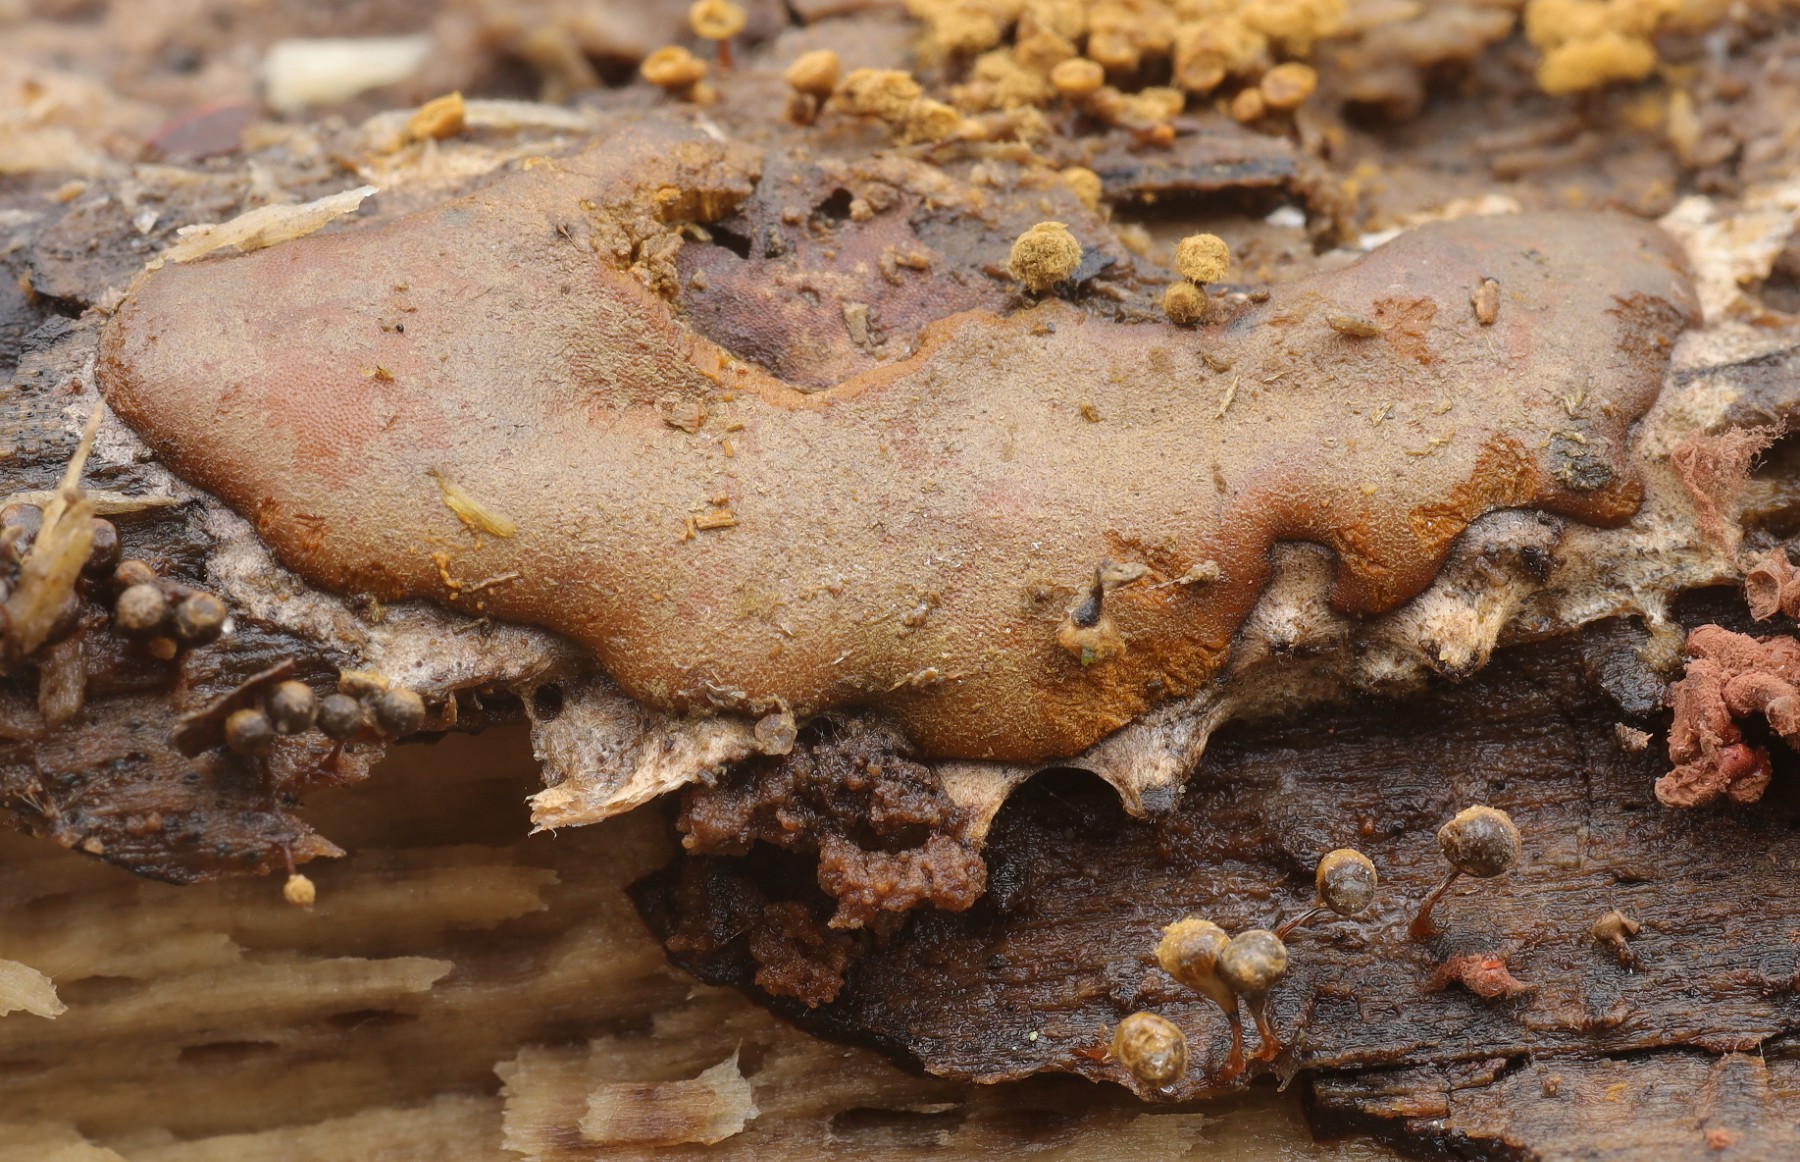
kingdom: Protozoa
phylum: Mycetozoa
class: Myxomycetes
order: Trichiales
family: Dictydiaethaliaceae
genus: Dictydiaethalium
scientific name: Dictydiaethalium plumbeum
